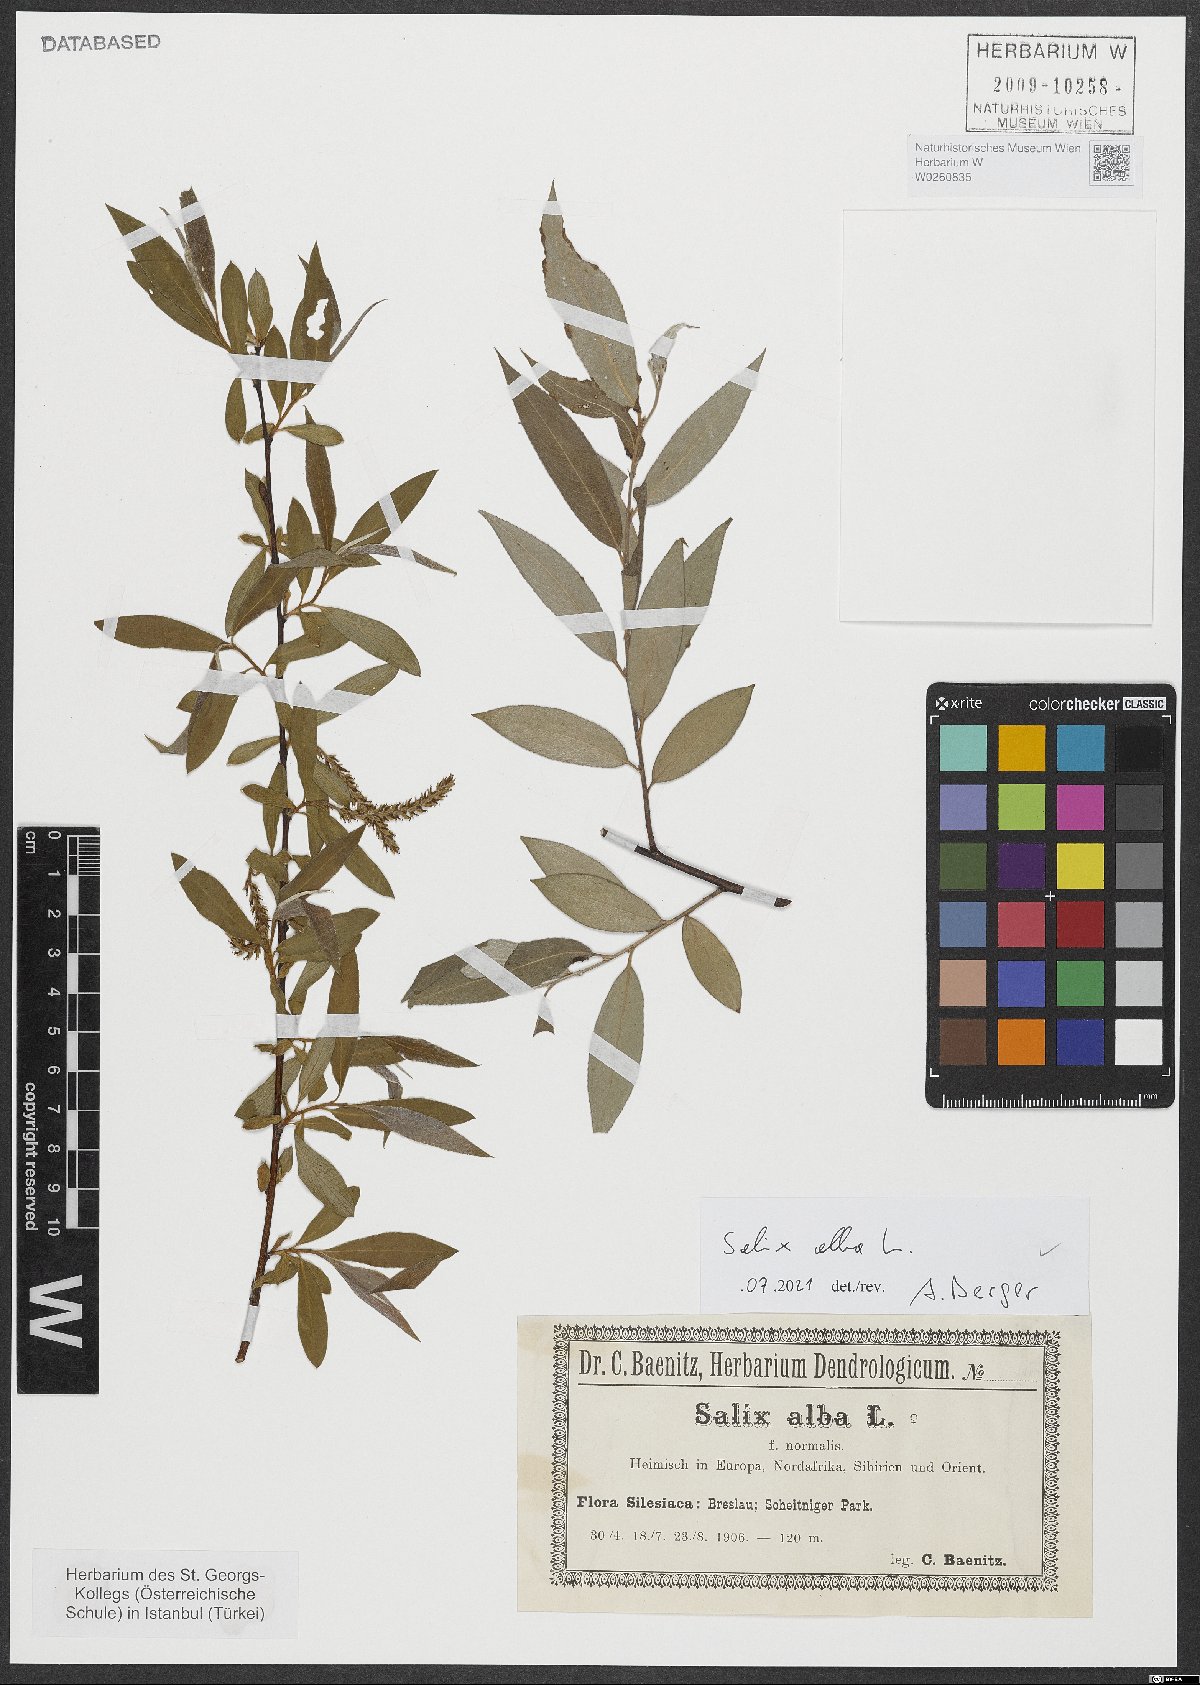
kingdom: Plantae
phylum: Tracheophyta
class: Magnoliopsida
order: Malpighiales
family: Salicaceae
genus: Salix
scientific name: Salix alba
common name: White willow
